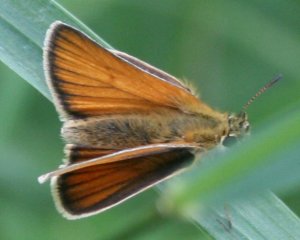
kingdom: Animalia
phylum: Arthropoda
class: Insecta
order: Lepidoptera
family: Hesperiidae
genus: Thymelicus
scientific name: Thymelicus lineola
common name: European Skipper
